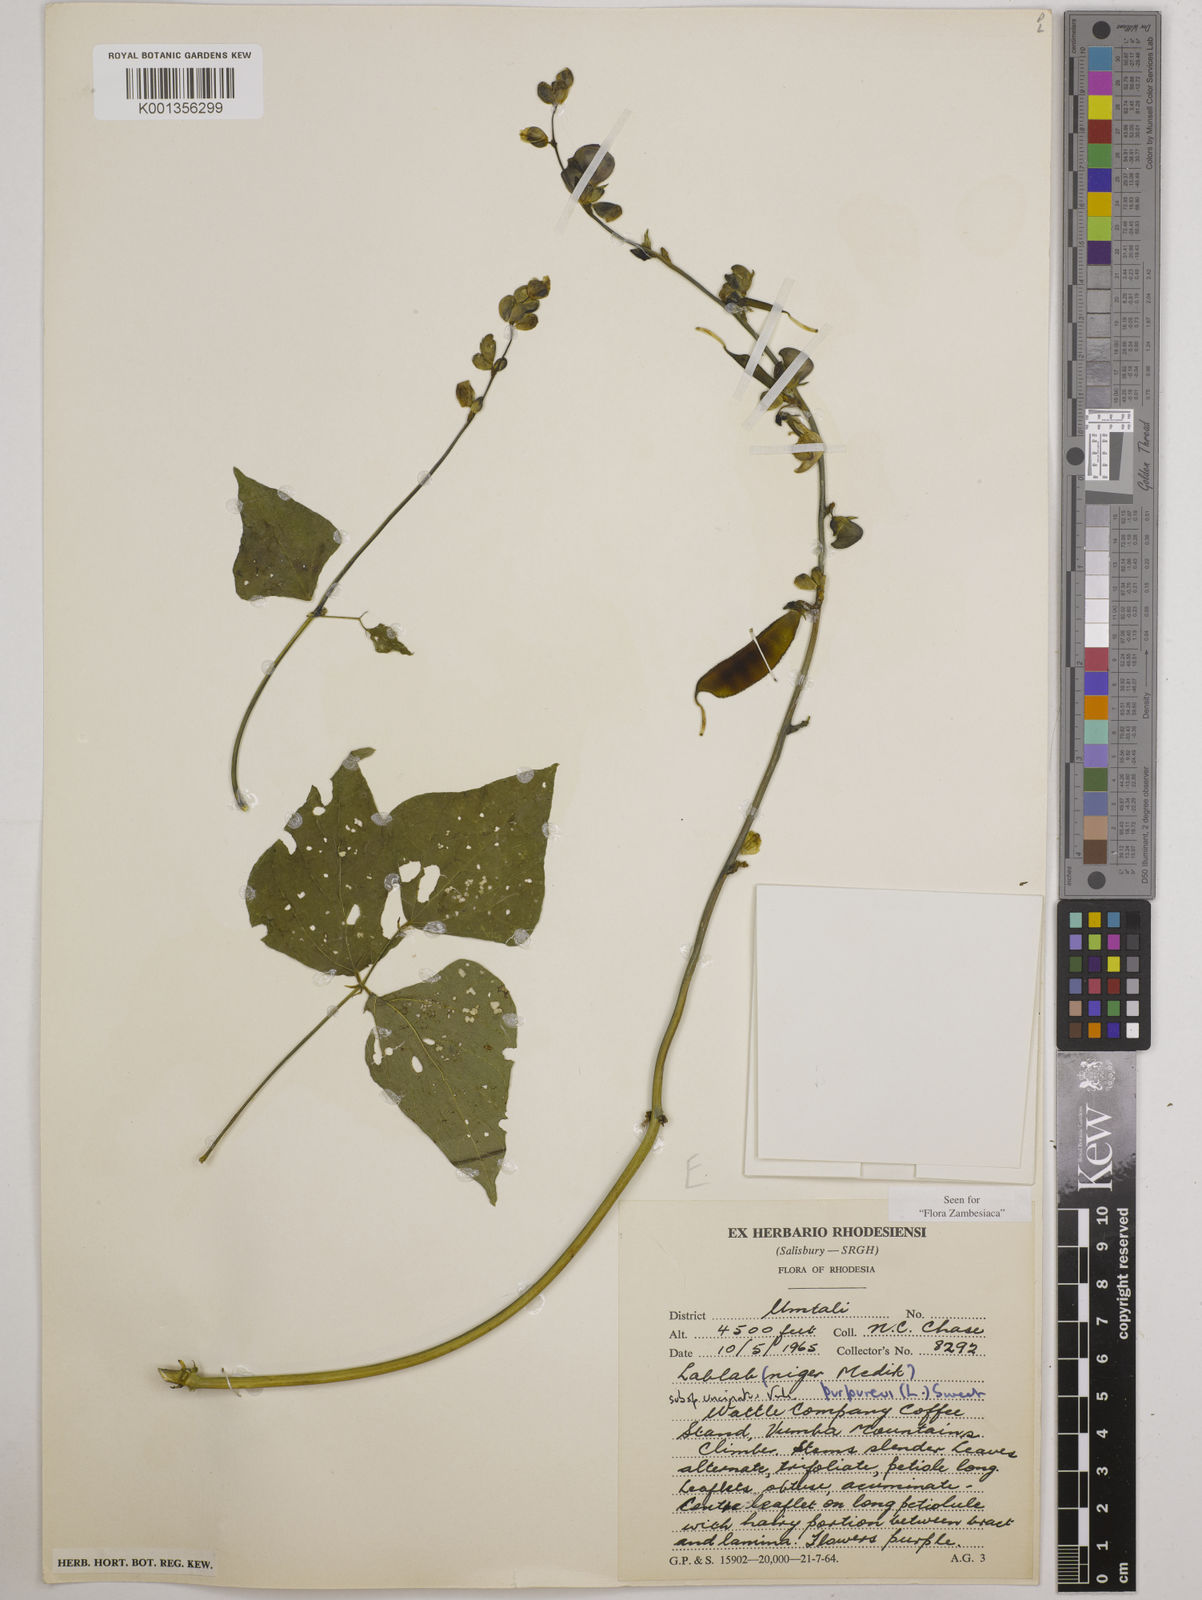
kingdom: Plantae
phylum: Tracheophyta
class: Magnoliopsida
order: Fabales
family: Fabaceae
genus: Lablab
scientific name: Lablab purpureus
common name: Lablab-bean
